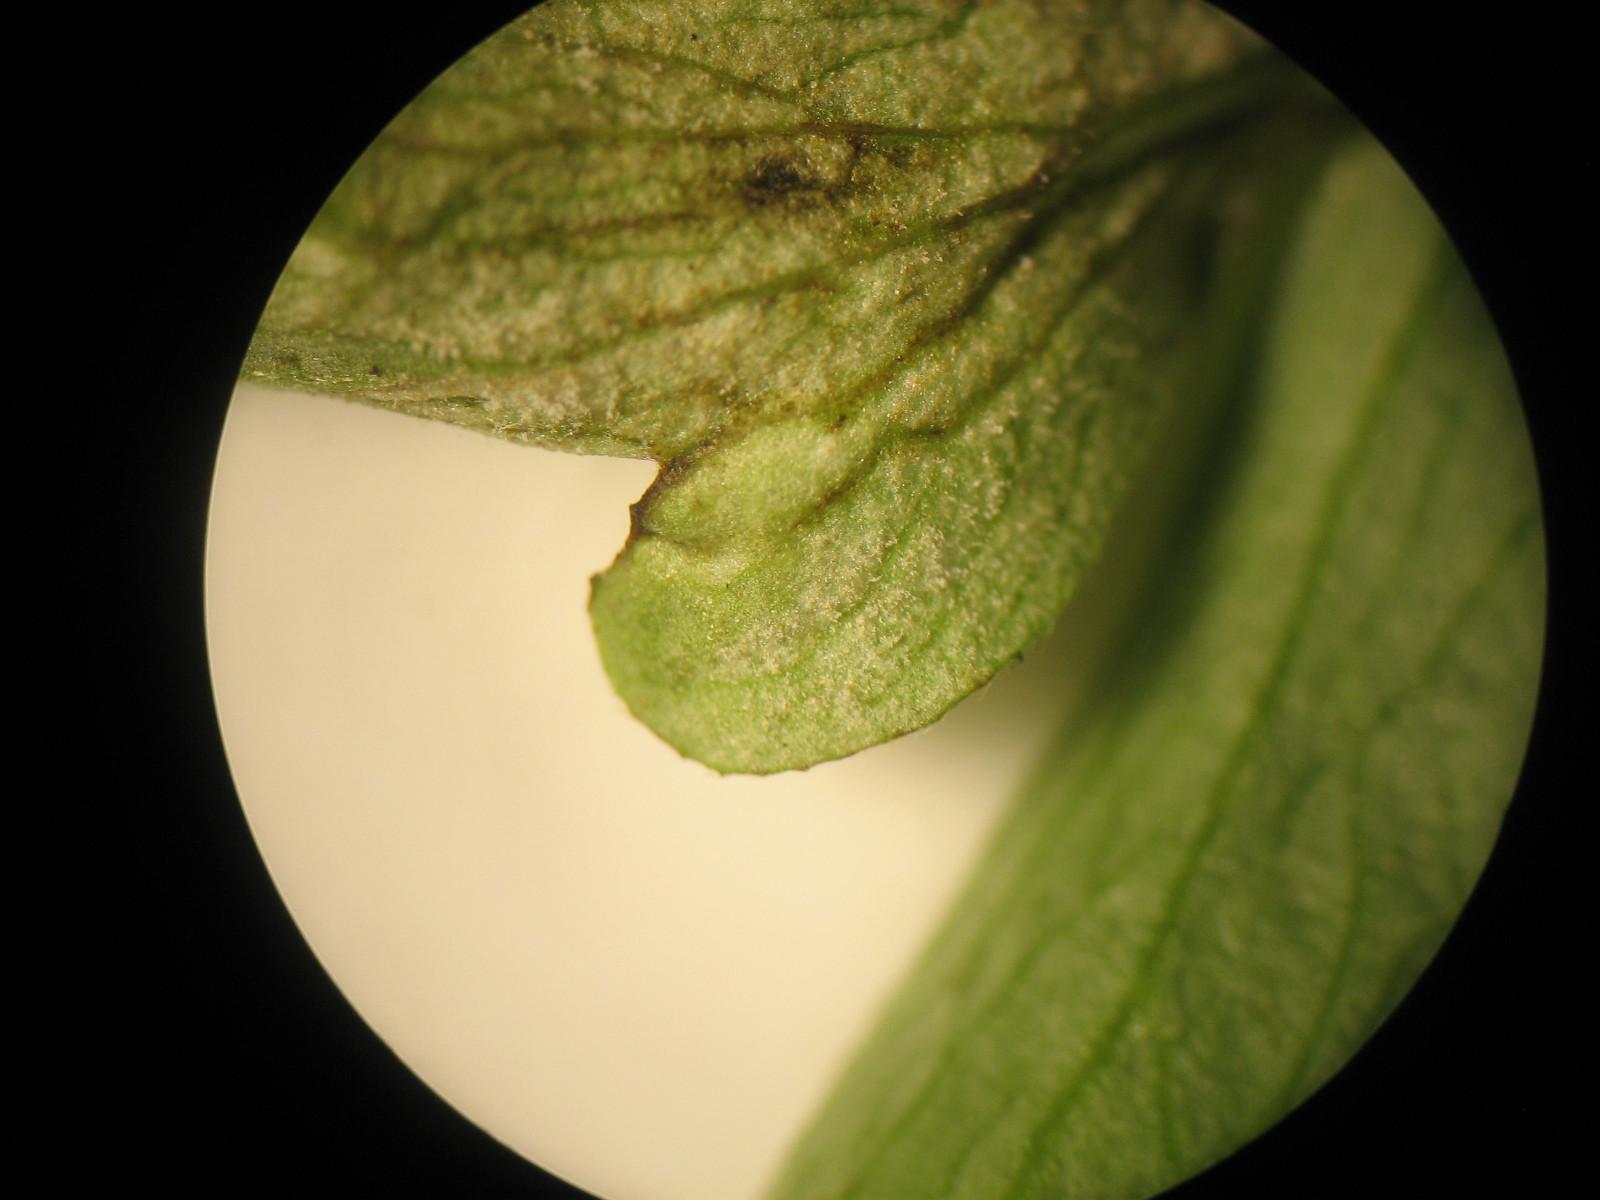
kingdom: Chromista
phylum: Oomycota
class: Peronosporea
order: Peronosporales
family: Peronosporaceae
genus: Plasmoverna
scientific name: Plasmoverna pygmaea
